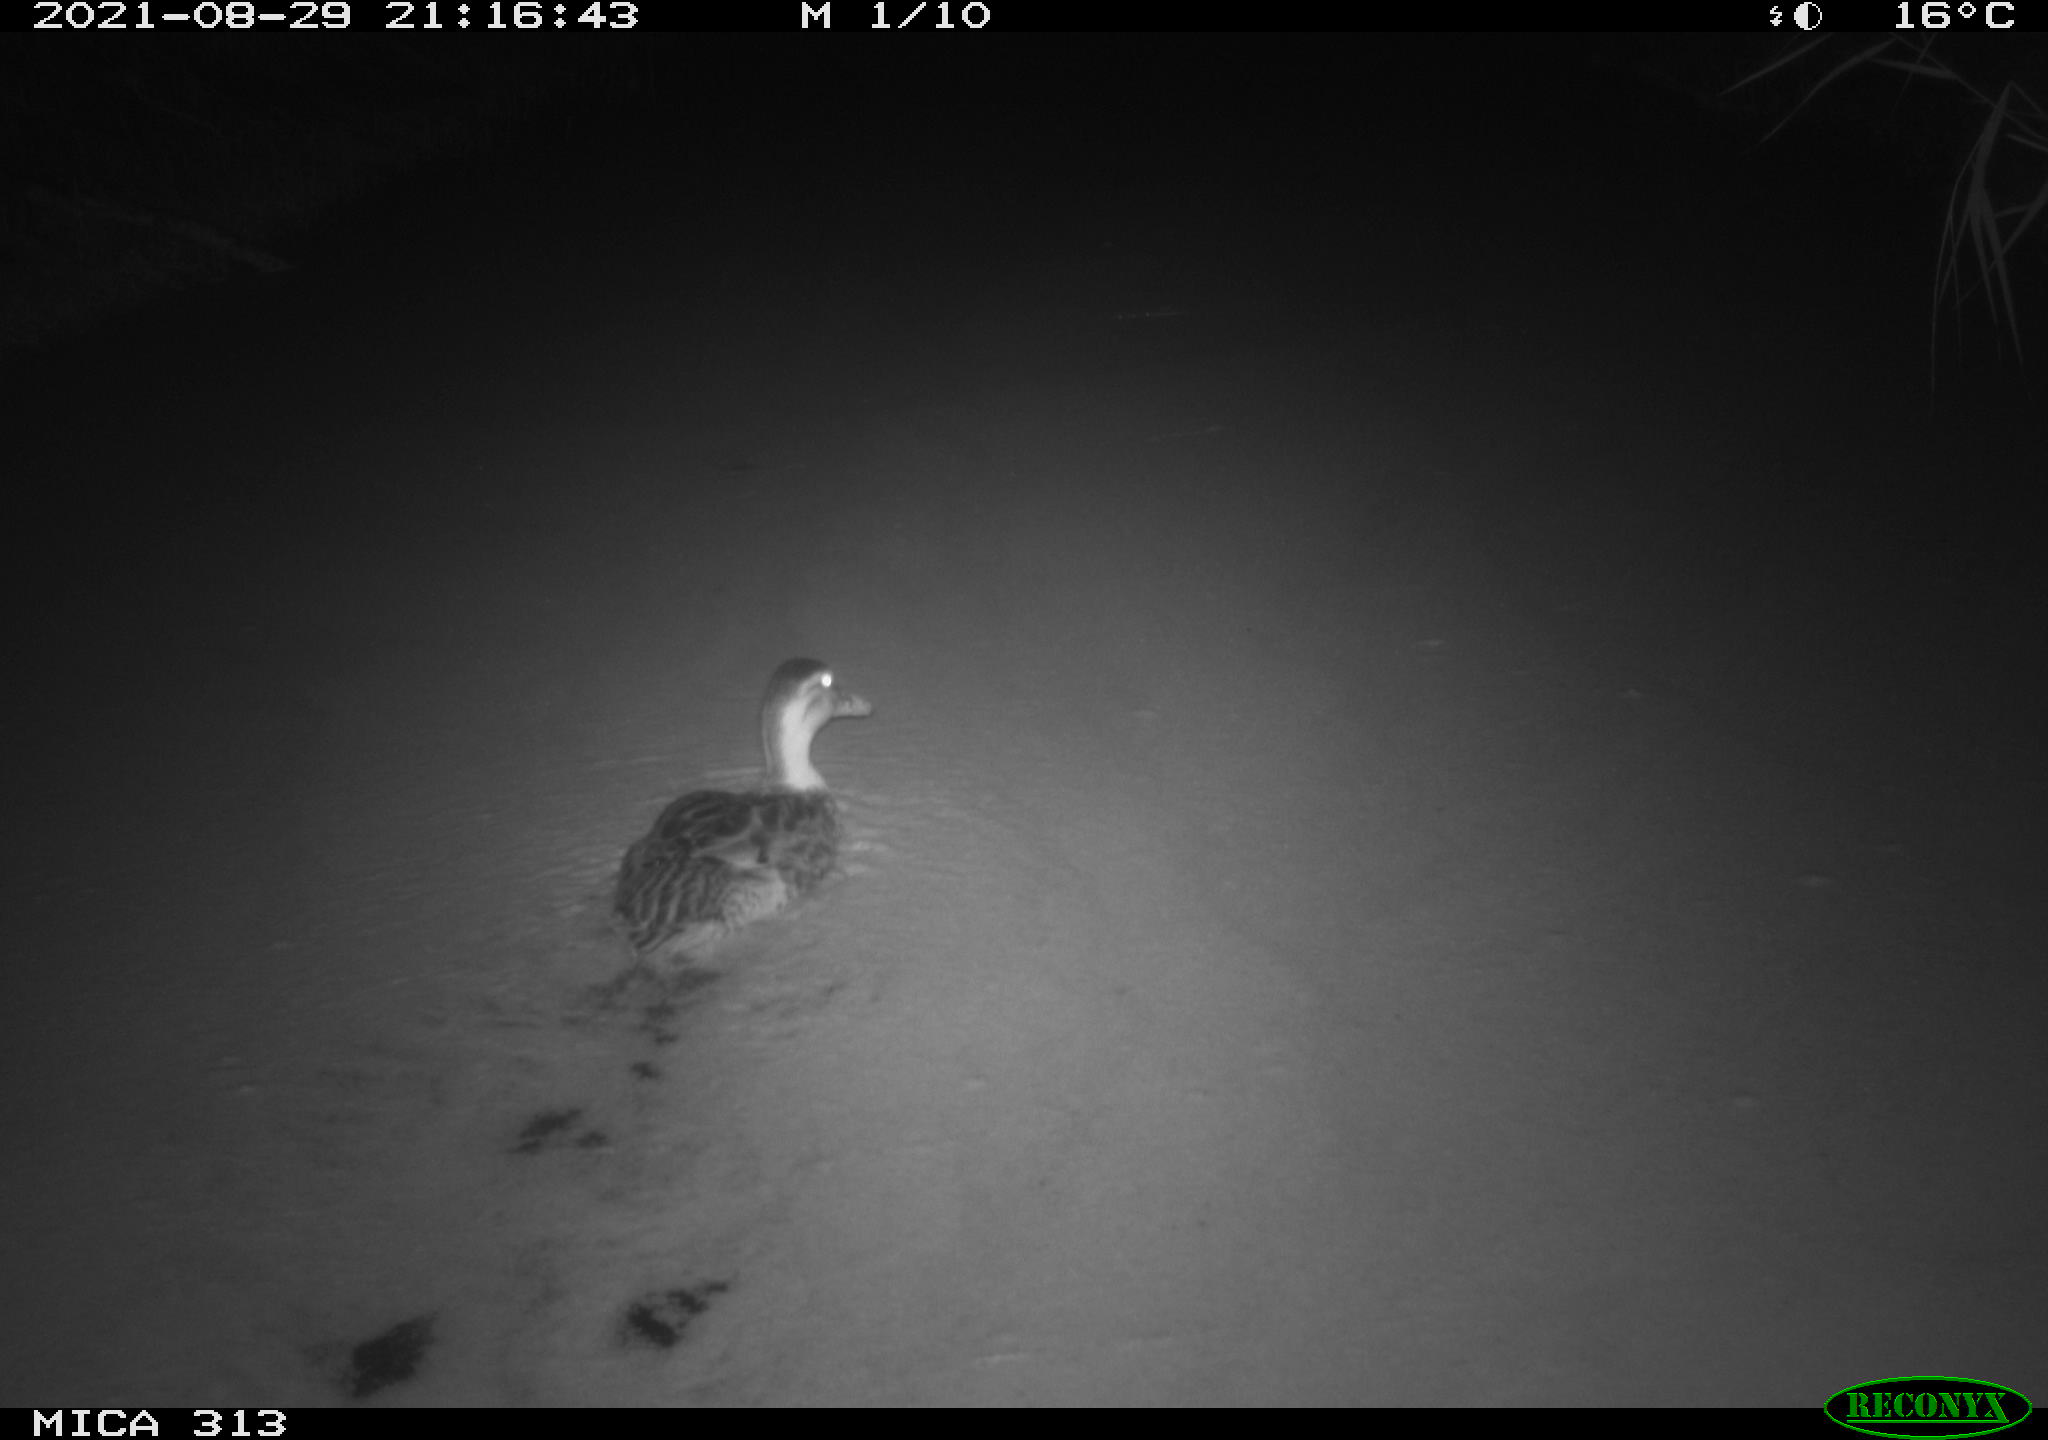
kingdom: Animalia
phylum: Chordata
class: Aves
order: Anseriformes
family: Anatidae
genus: Anas
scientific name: Anas platyrhynchos
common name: Mallard
